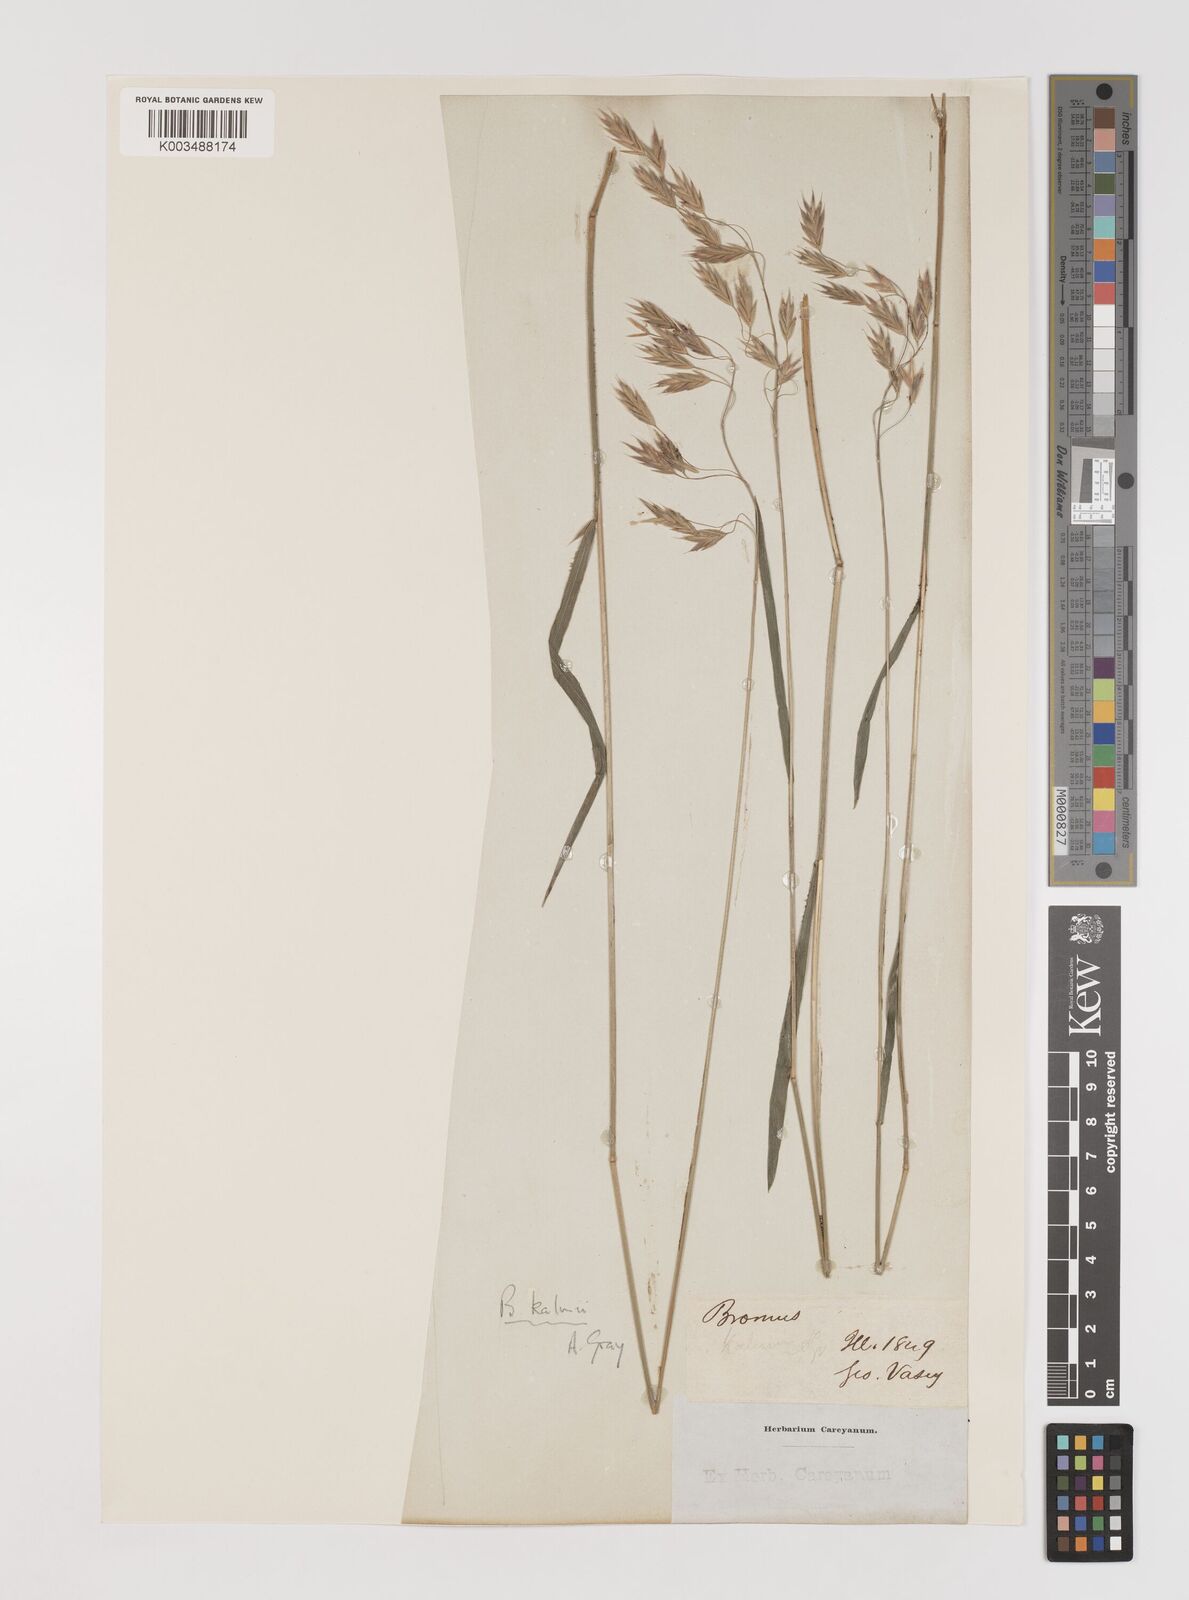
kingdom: Plantae
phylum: Tracheophyta
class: Liliopsida
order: Poales
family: Poaceae
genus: Bromus
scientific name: Bromus kalmii
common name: Kalm brome
